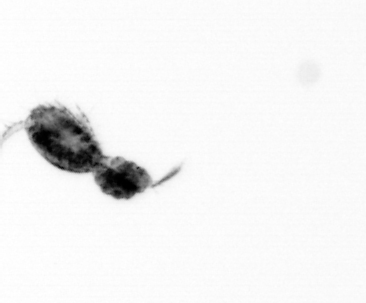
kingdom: Animalia
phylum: Arthropoda
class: Copepoda
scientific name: Copepoda
